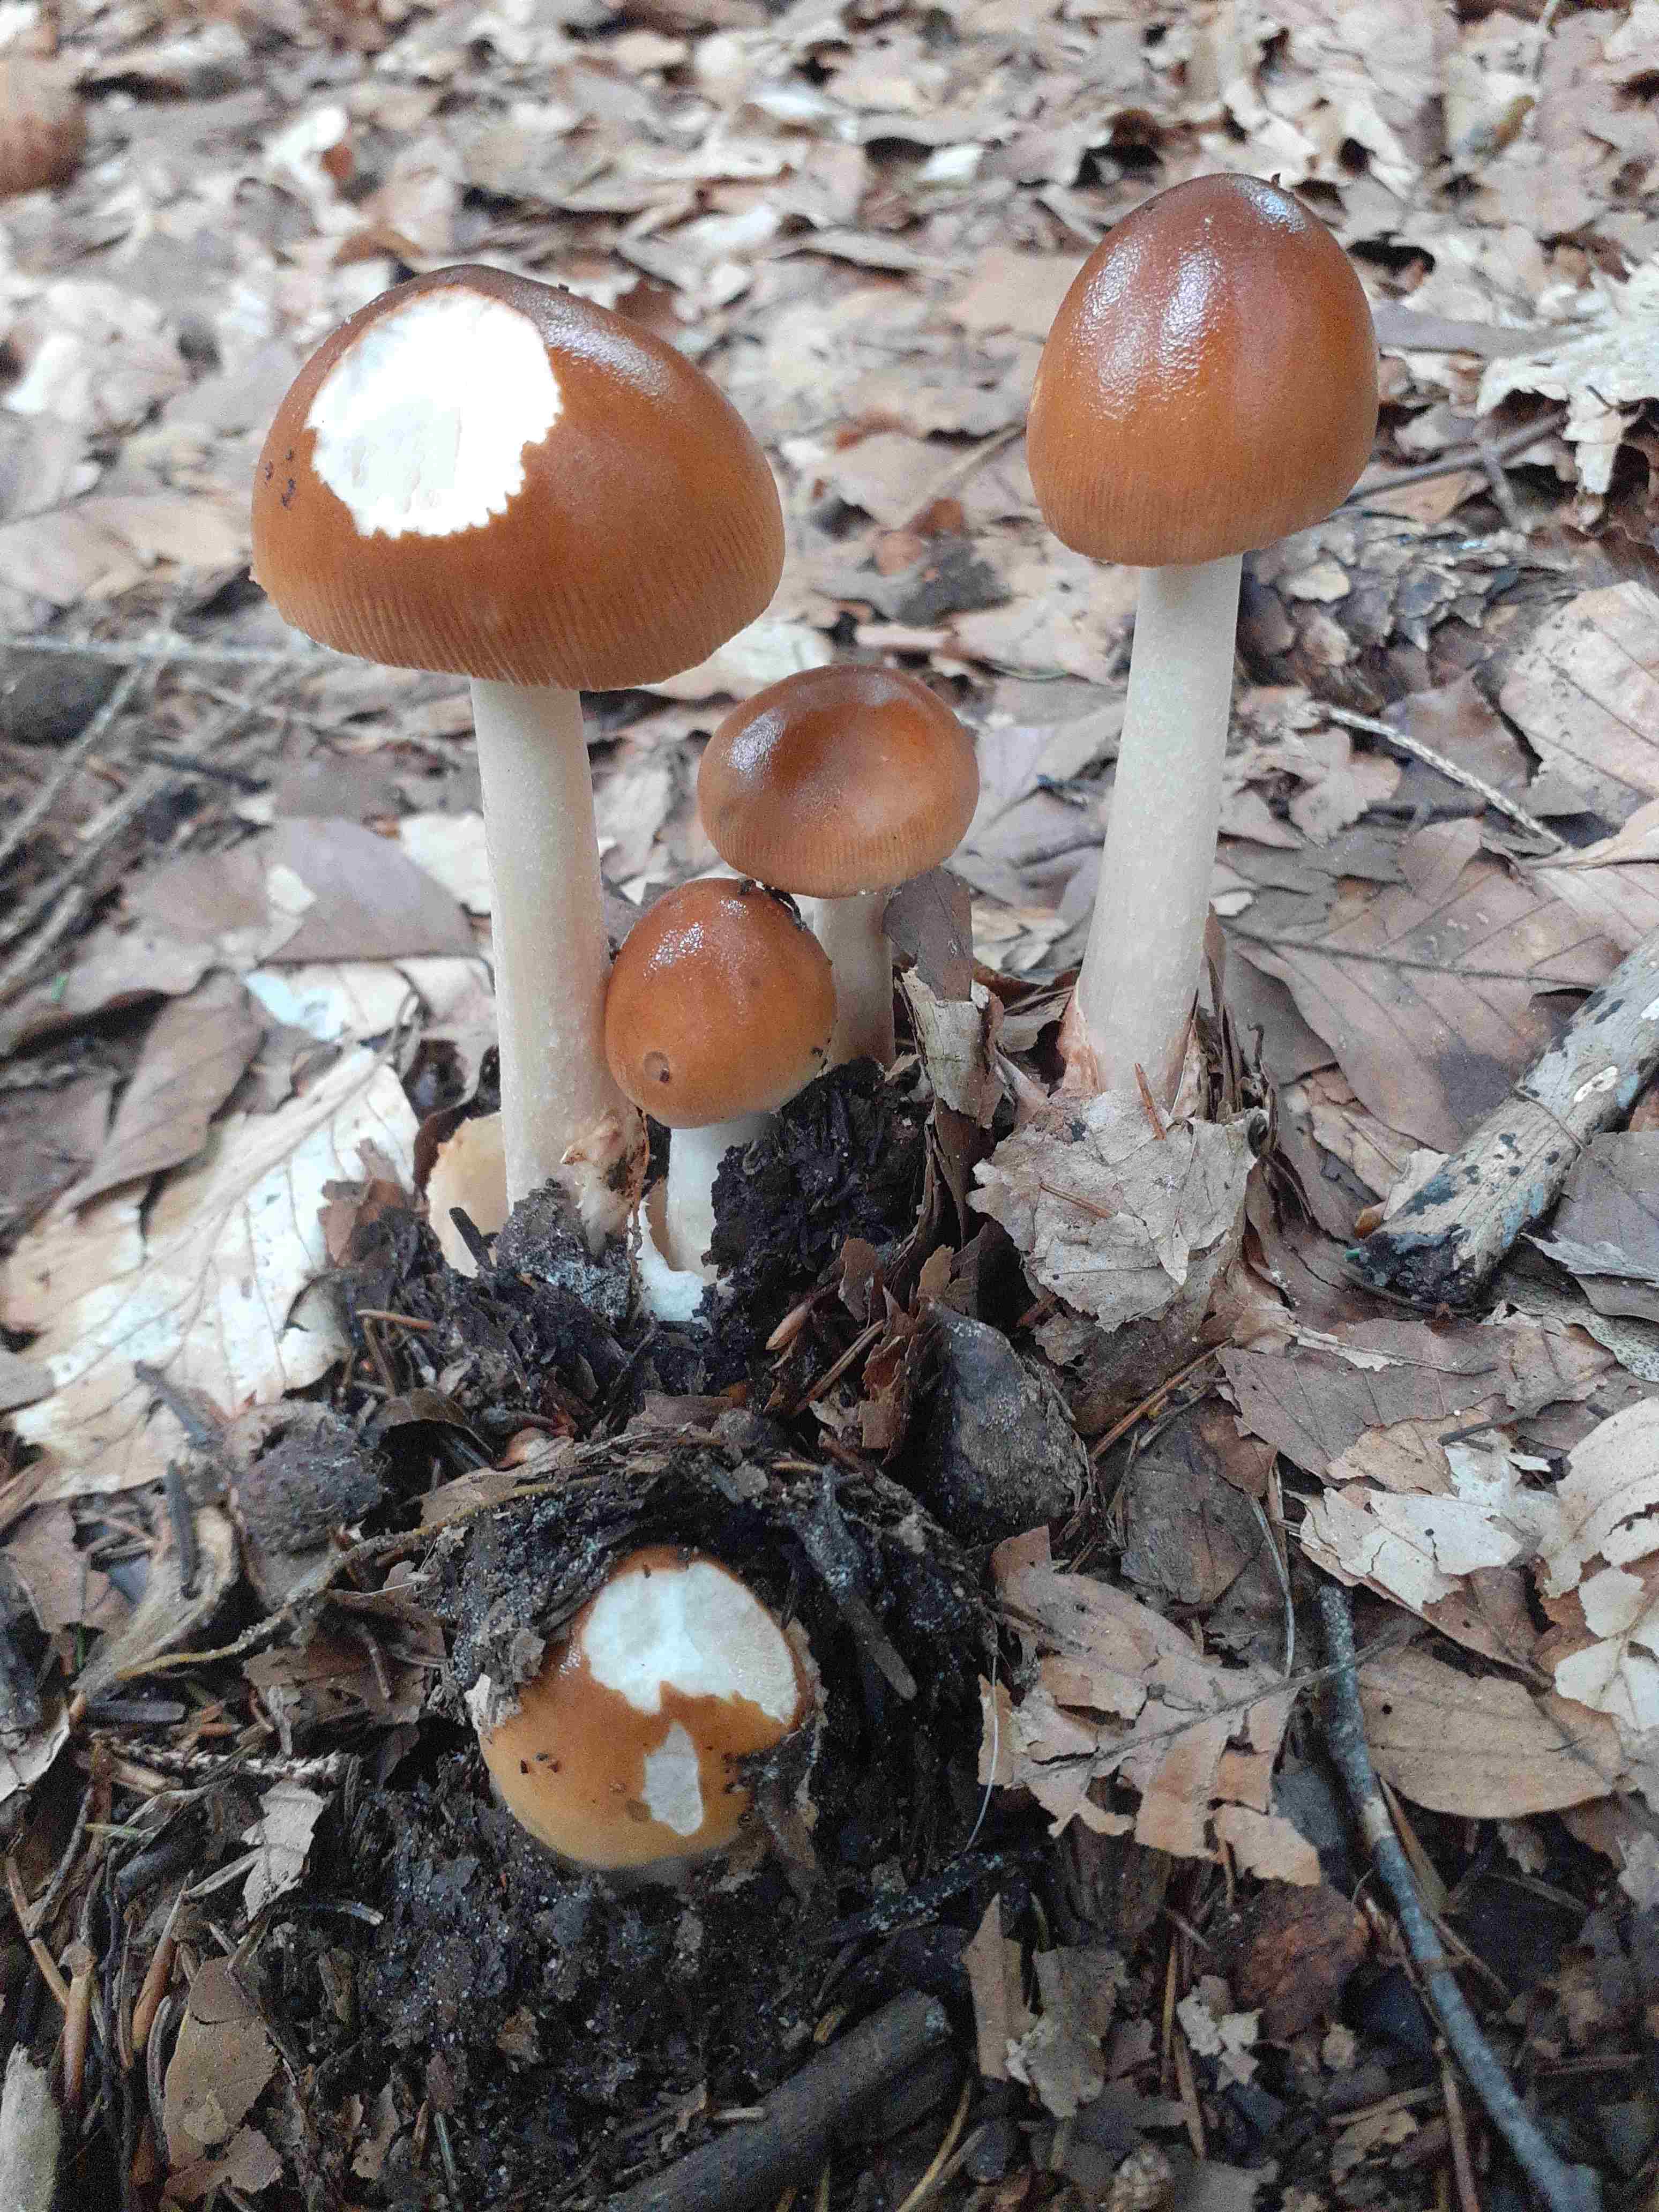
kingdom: Fungi
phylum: Basidiomycota
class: Agaricomycetes
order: Agaricales
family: Amanitaceae
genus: Amanita
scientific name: Amanita fulva
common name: brun kam-fluesvamp
